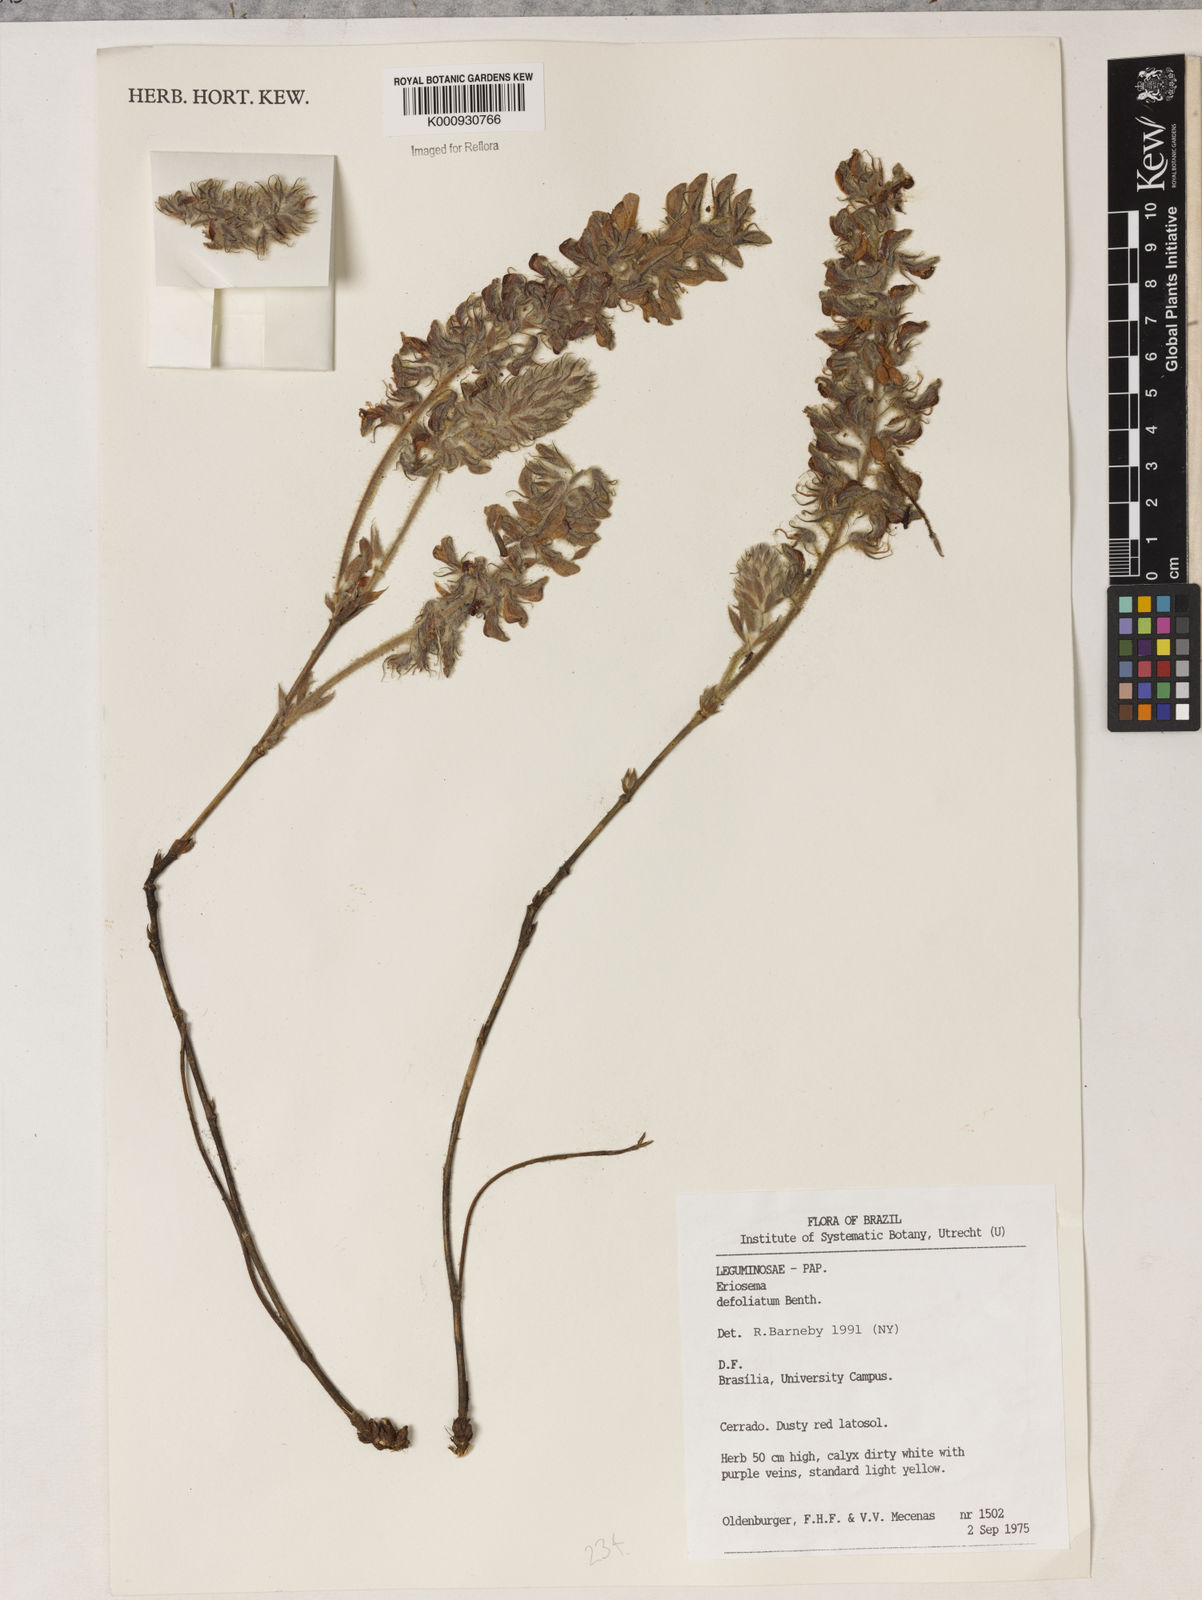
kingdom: Plantae
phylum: Tracheophyta
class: Magnoliopsida
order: Fabales
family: Fabaceae
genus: Eriosema
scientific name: Eriosema defoliatum
